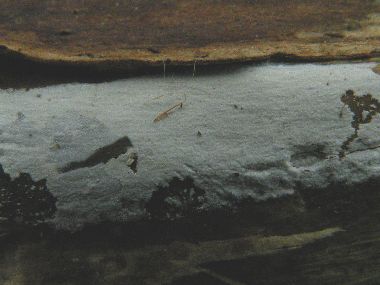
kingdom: Fungi
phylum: Basidiomycota
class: Agaricomycetes
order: Corticiales
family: Corticiaceae
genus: Lyomyces
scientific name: Lyomyces sambuci
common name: almindelig hyldehinde
